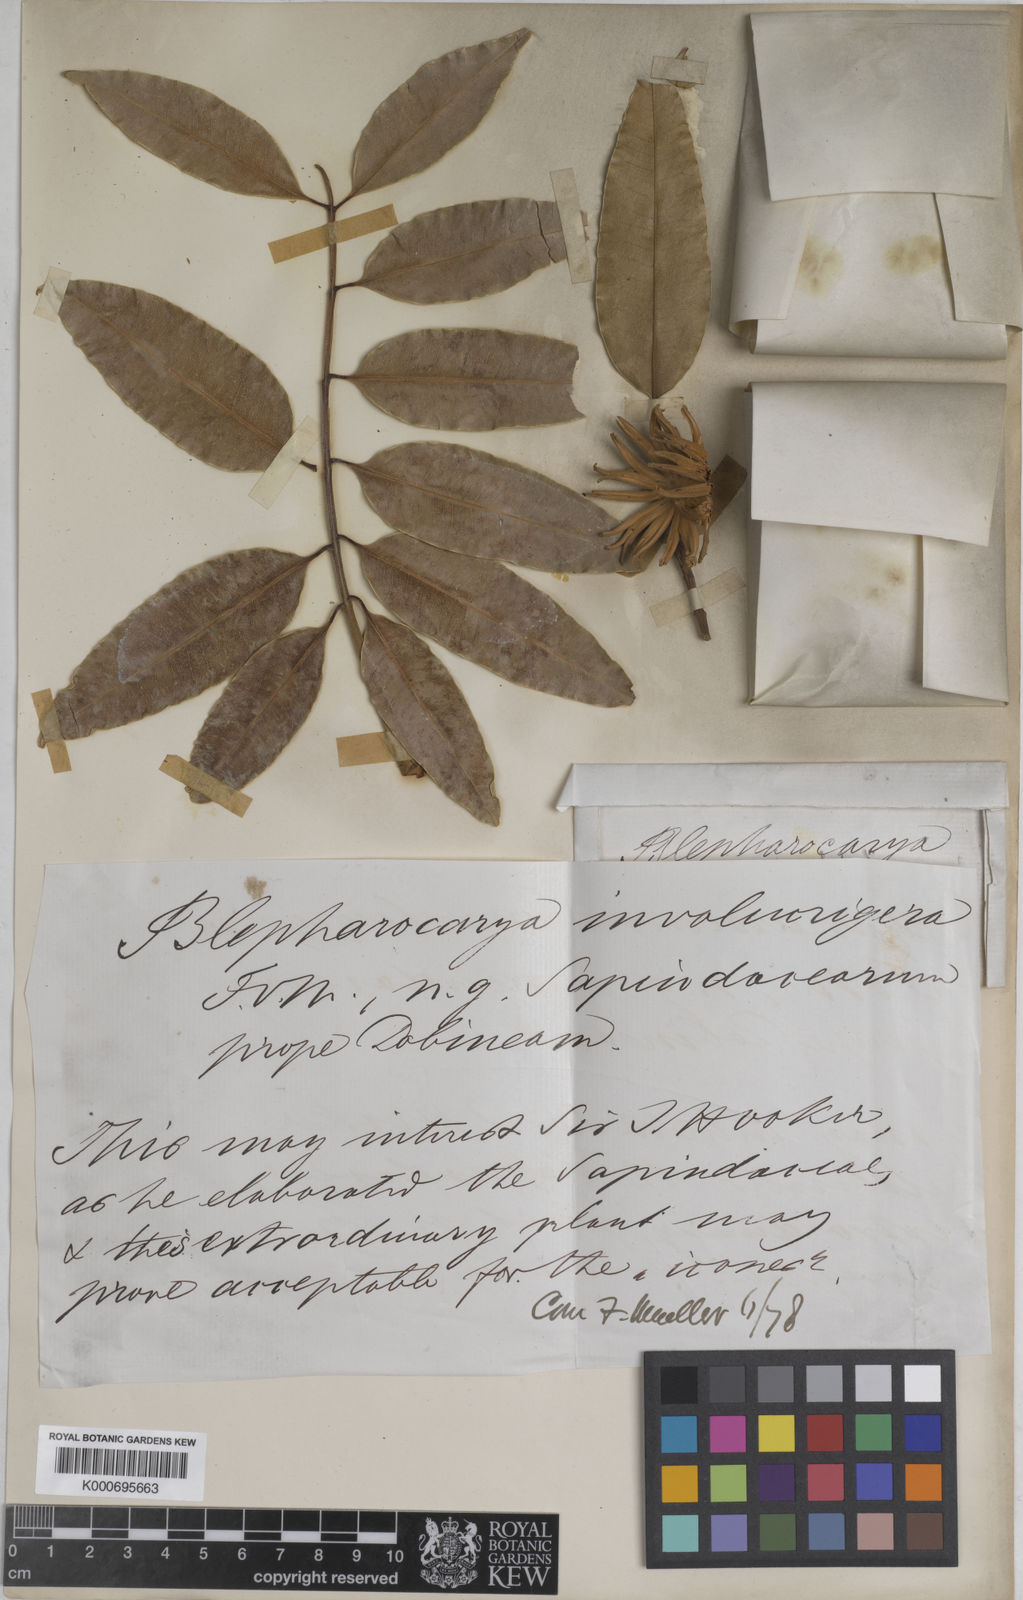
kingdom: Plantae
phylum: Tracheophyta
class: Magnoliopsida
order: Sapindales
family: Anacardiaceae
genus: Blepharocarya
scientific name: Blepharocarya involucrigera
